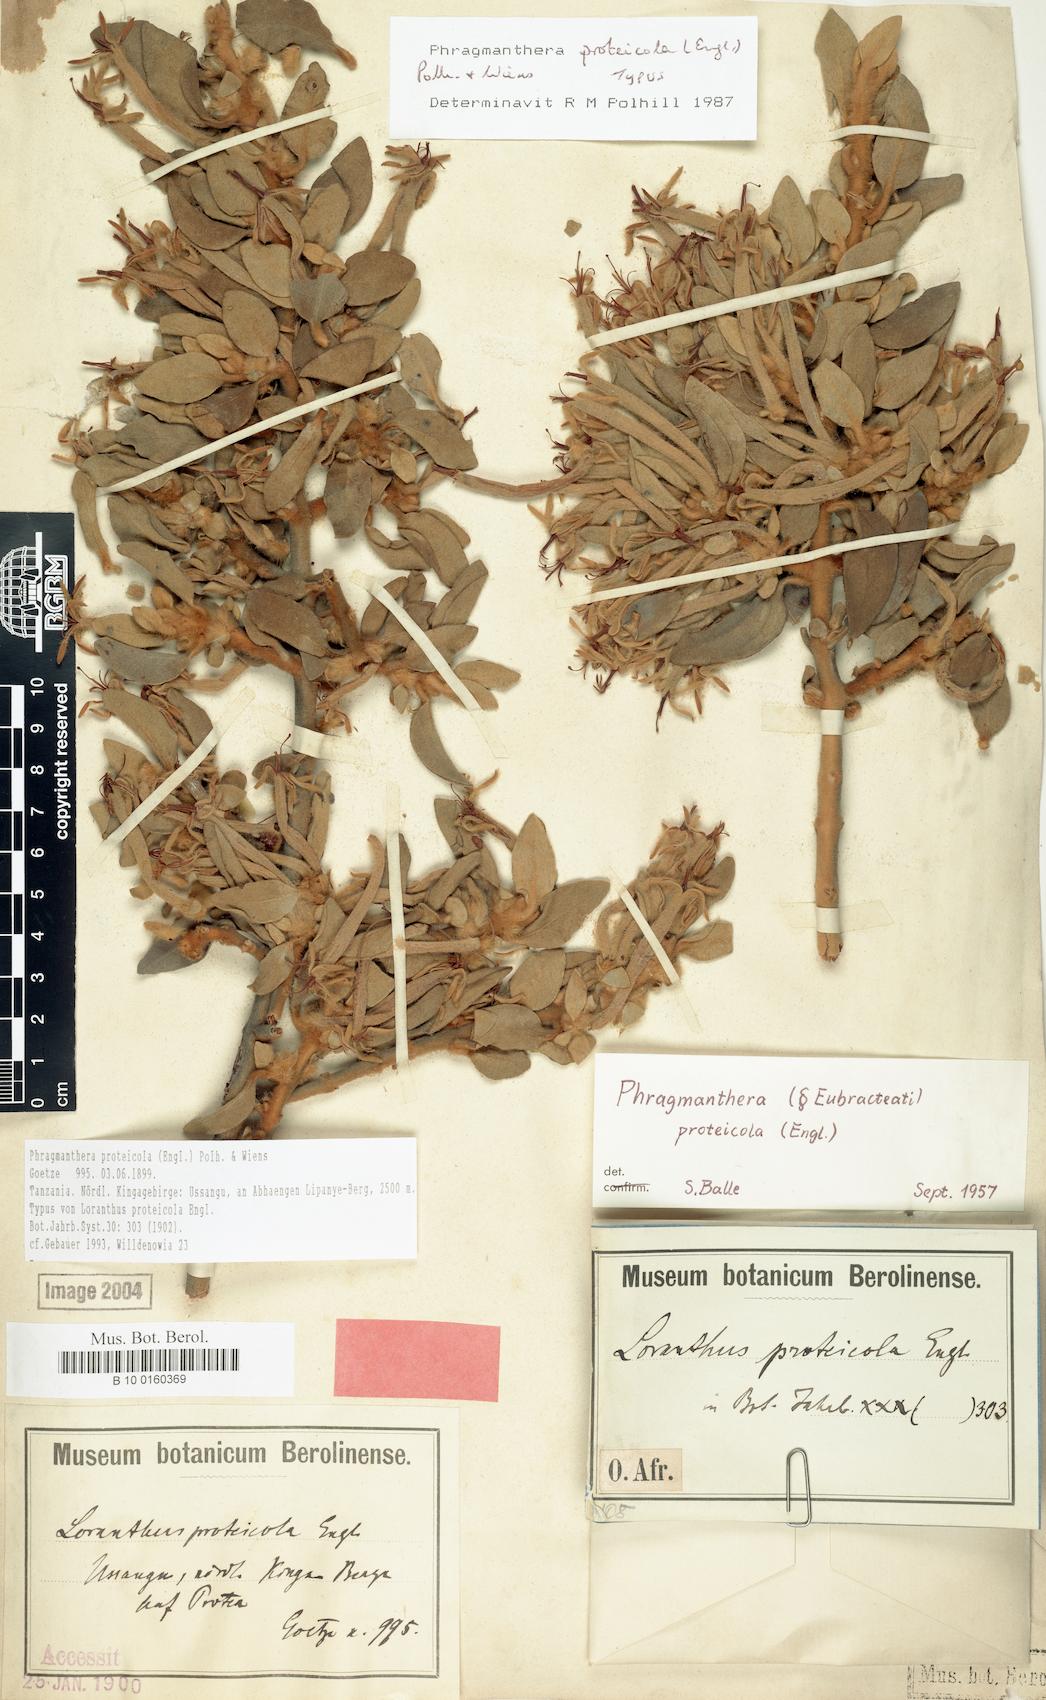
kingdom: Plantae
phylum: Tracheophyta
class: Magnoliopsida
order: Santalales
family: Loranthaceae
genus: Phragmanthera
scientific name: Phragmanthera proteicola
